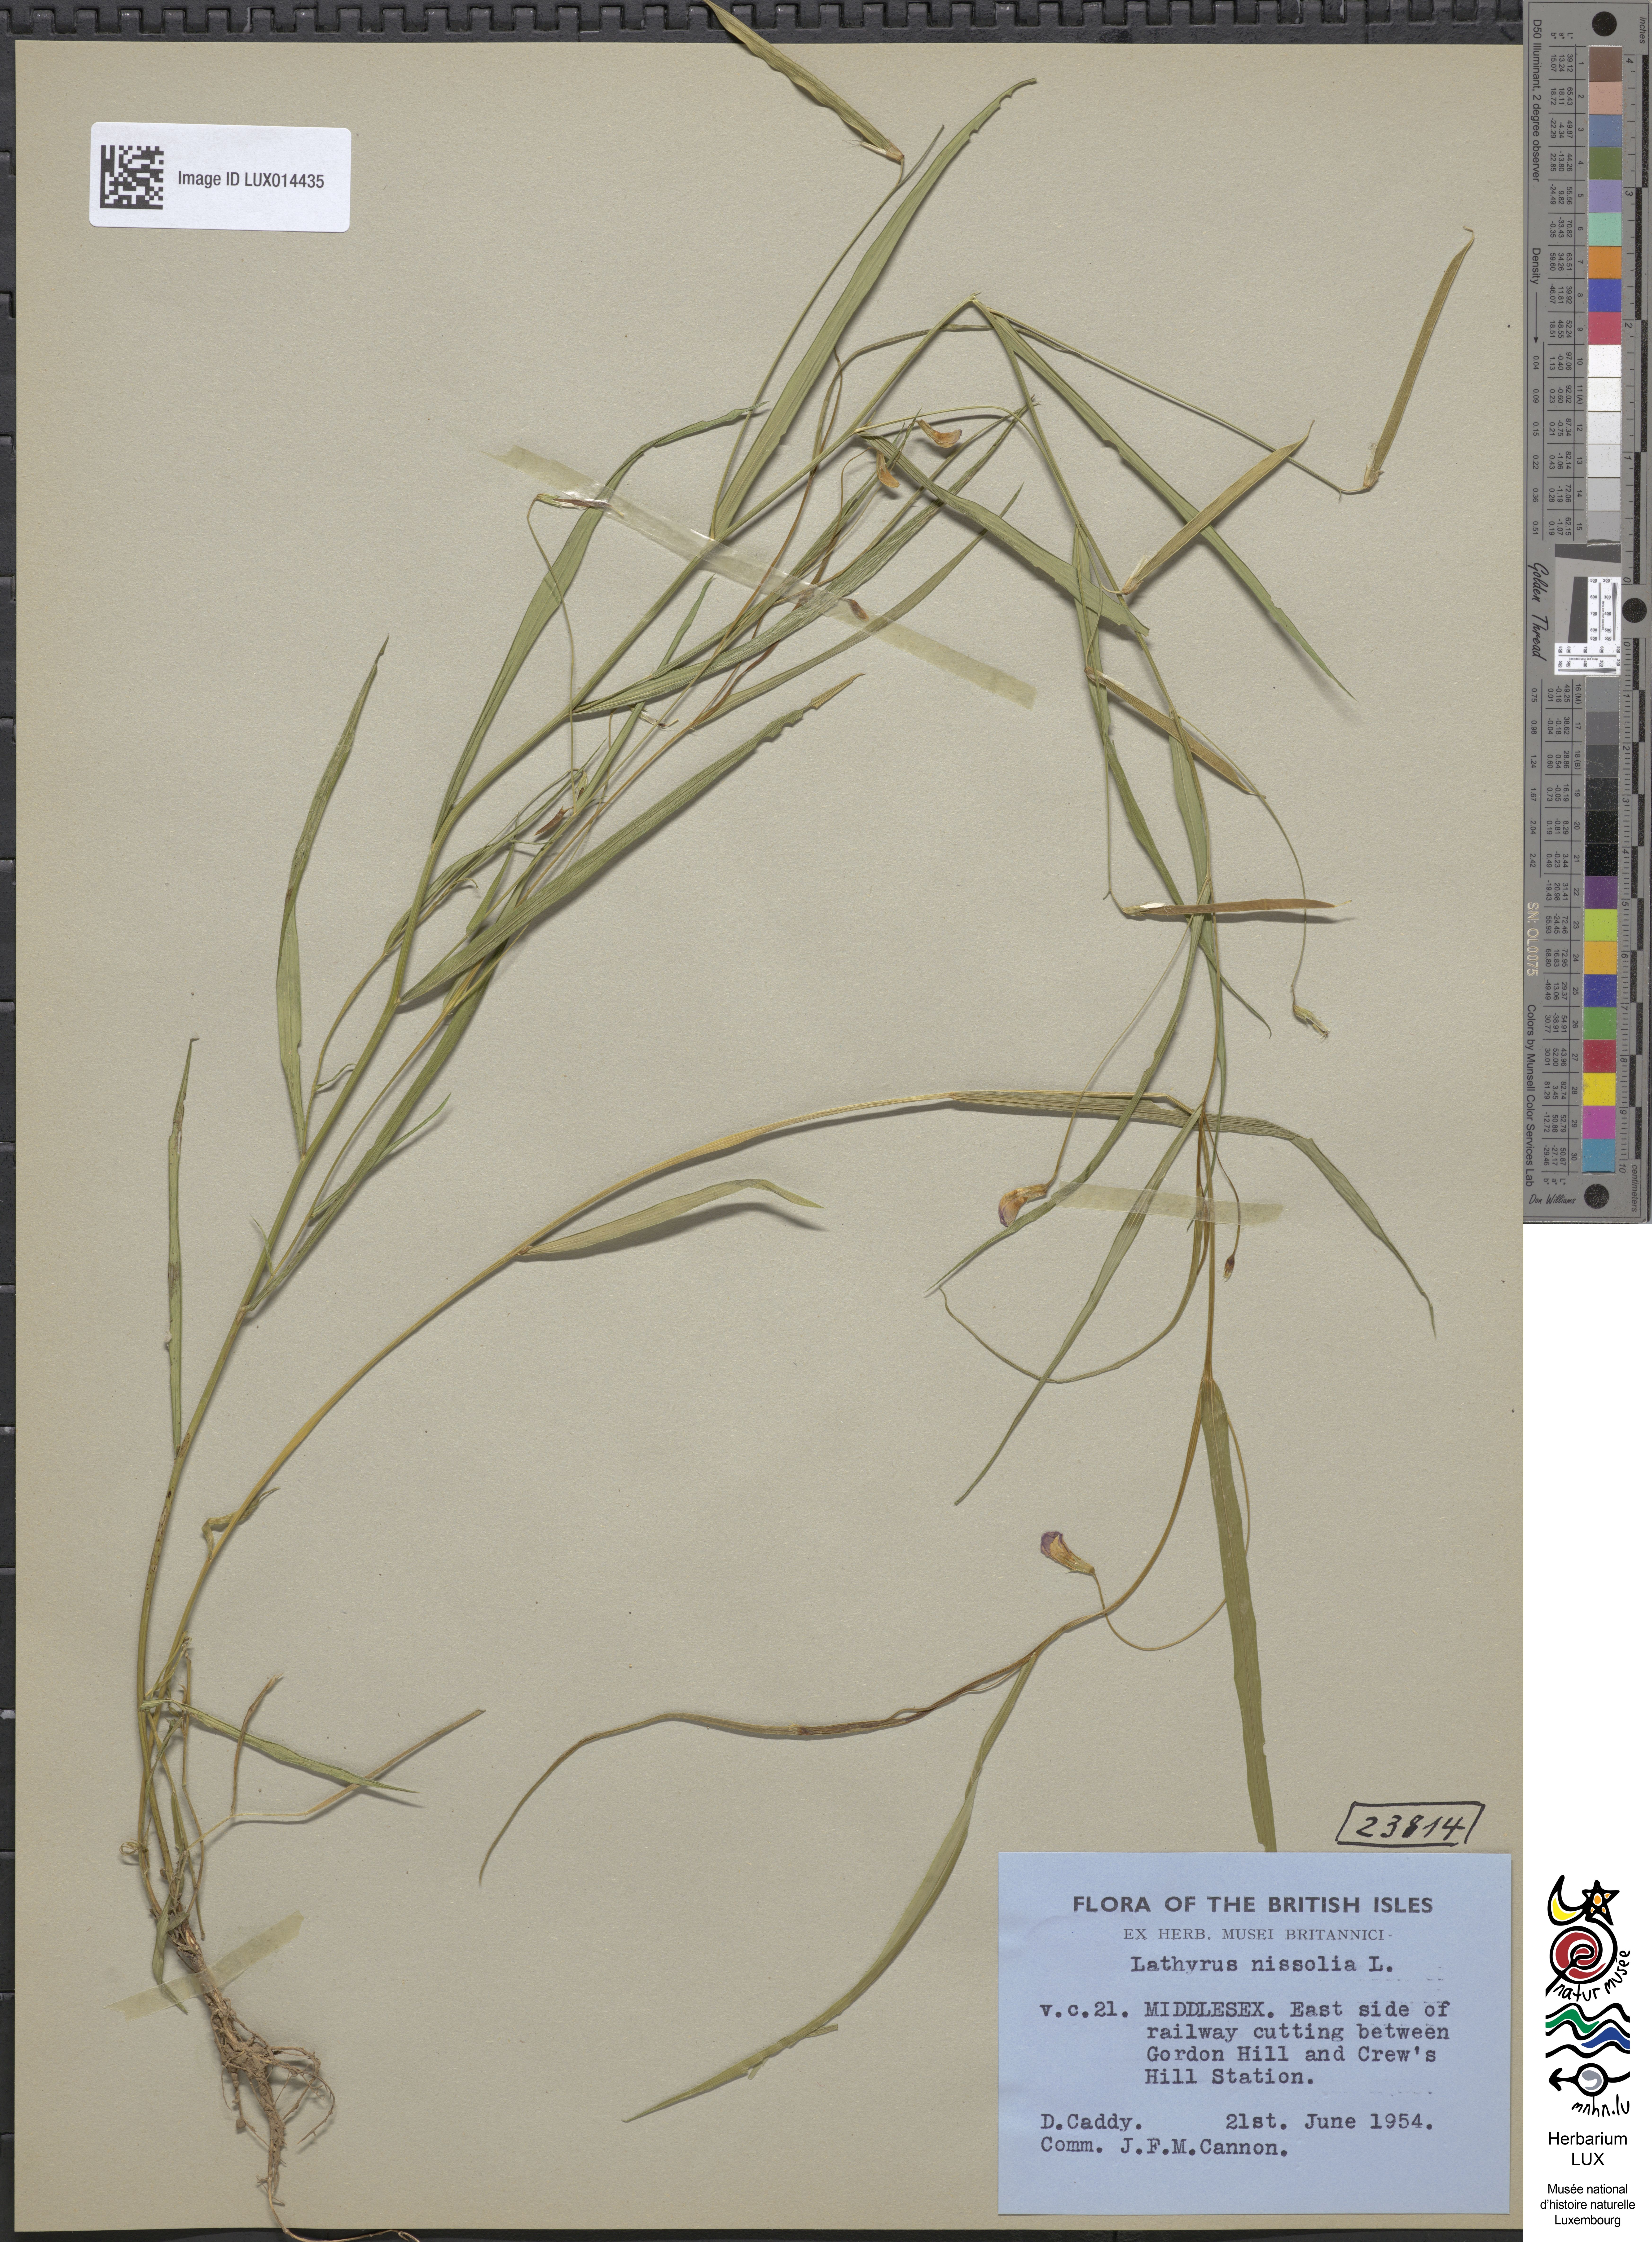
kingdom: Plantae
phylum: Tracheophyta
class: Magnoliopsida
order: Fabales
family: Fabaceae
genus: Lathyrus
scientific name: Lathyrus nissolia
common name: Grass vetchling
